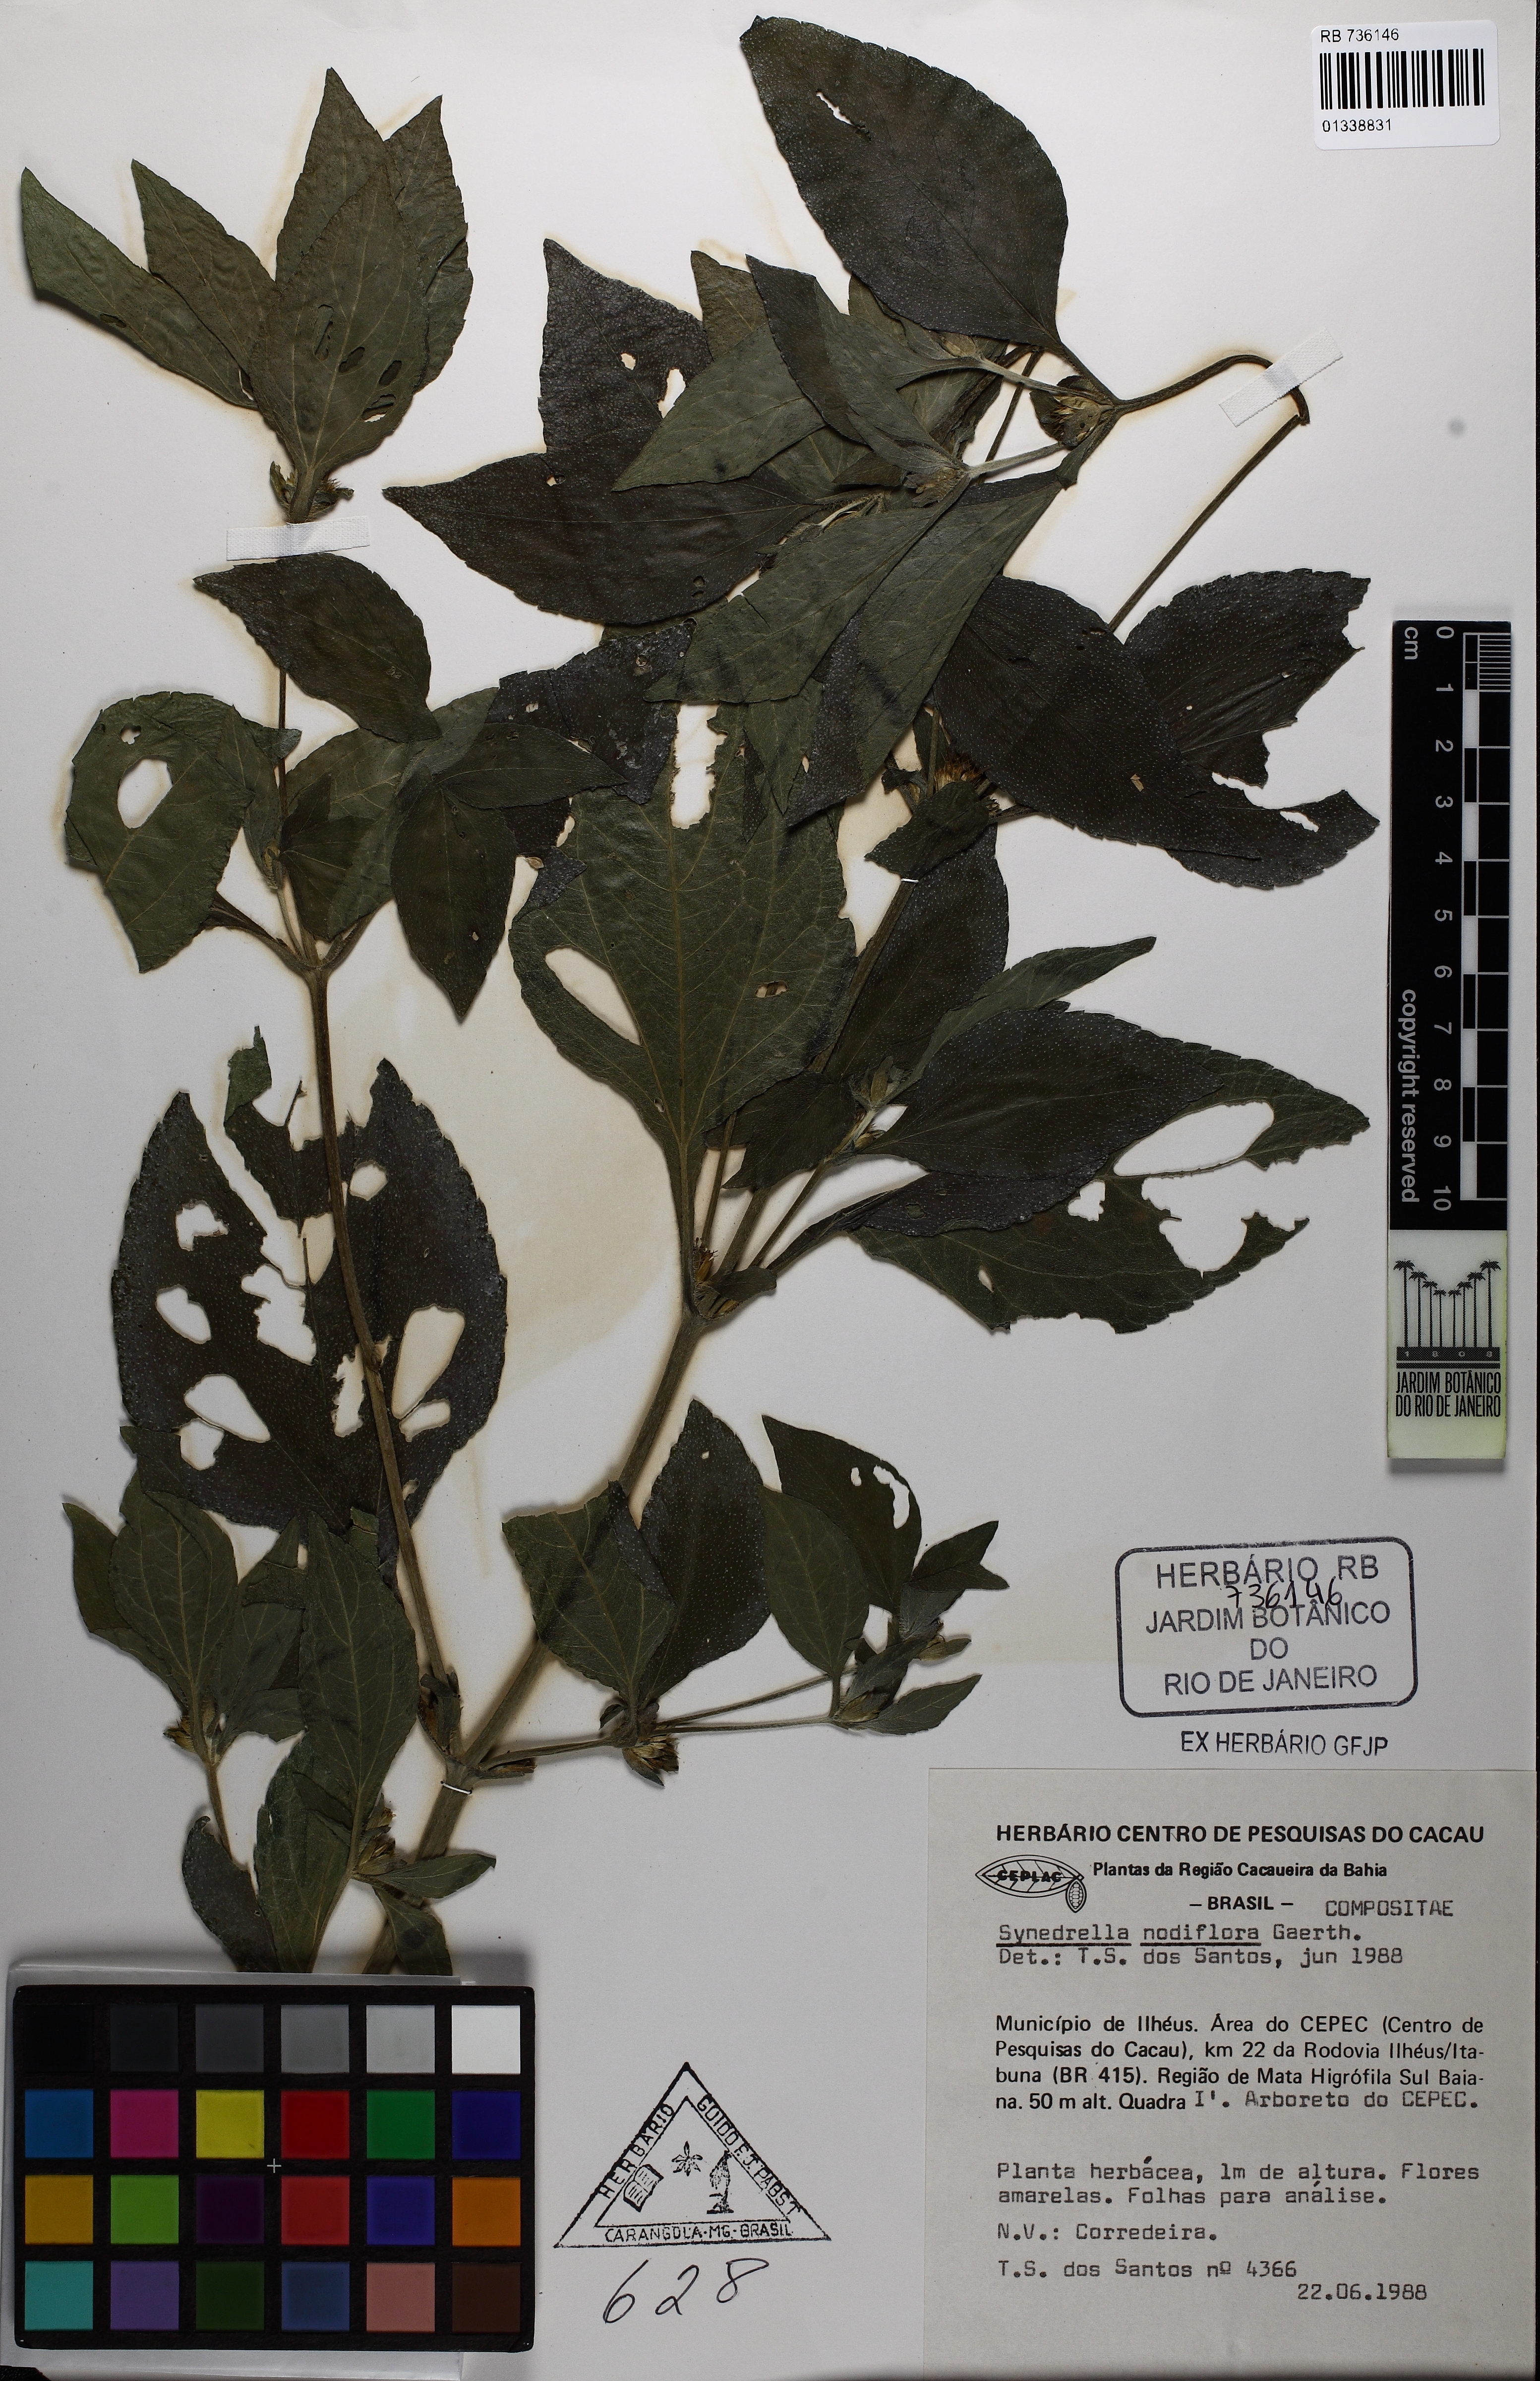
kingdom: Plantae
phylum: Tracheophyta
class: Magnoliopsida
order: Asterales
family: Asteraceae
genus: Synedrella
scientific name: Synedrella nodiflora
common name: Nodeweed
